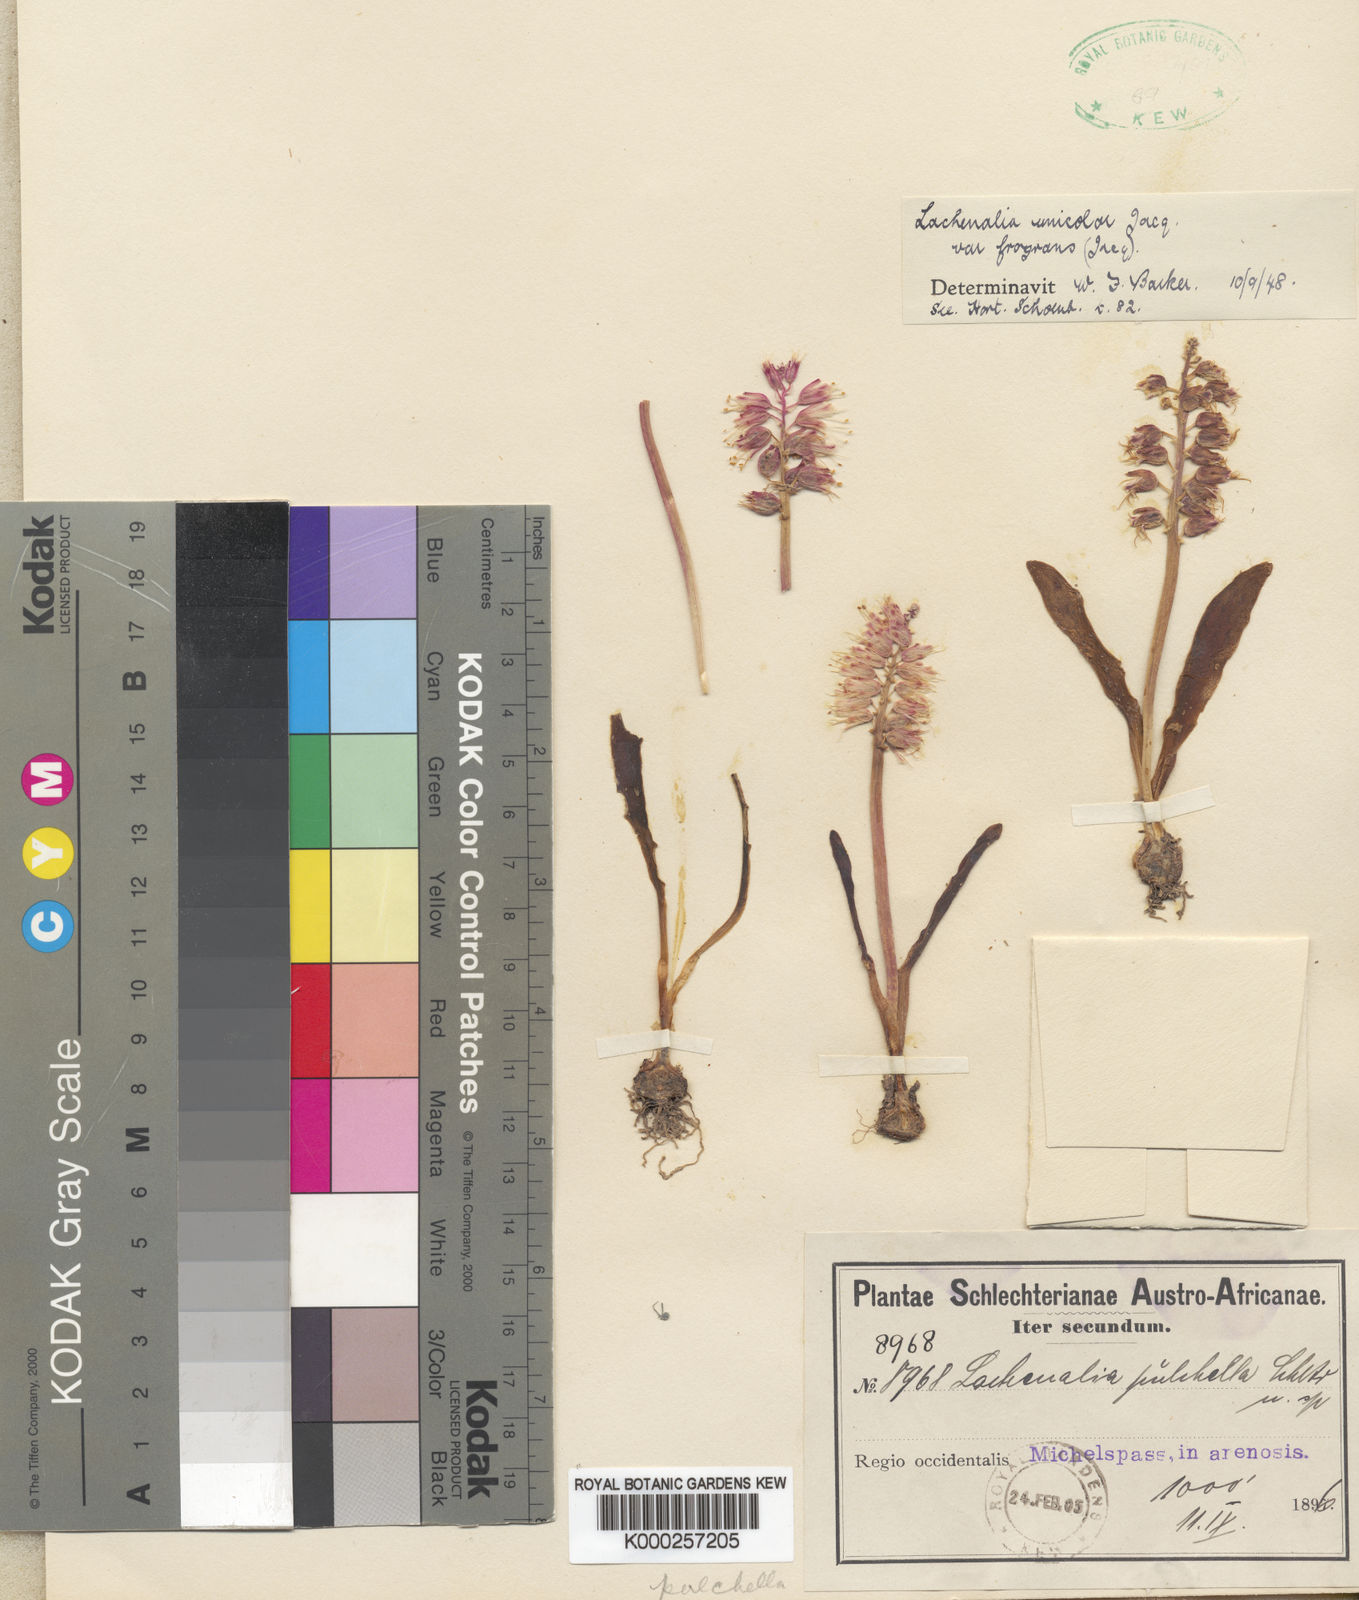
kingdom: Plantae
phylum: Tracheophyta
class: Liliopsida
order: Asparagales
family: Asparagaceae
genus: Lachenalia
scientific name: Lachenalia orchioides
